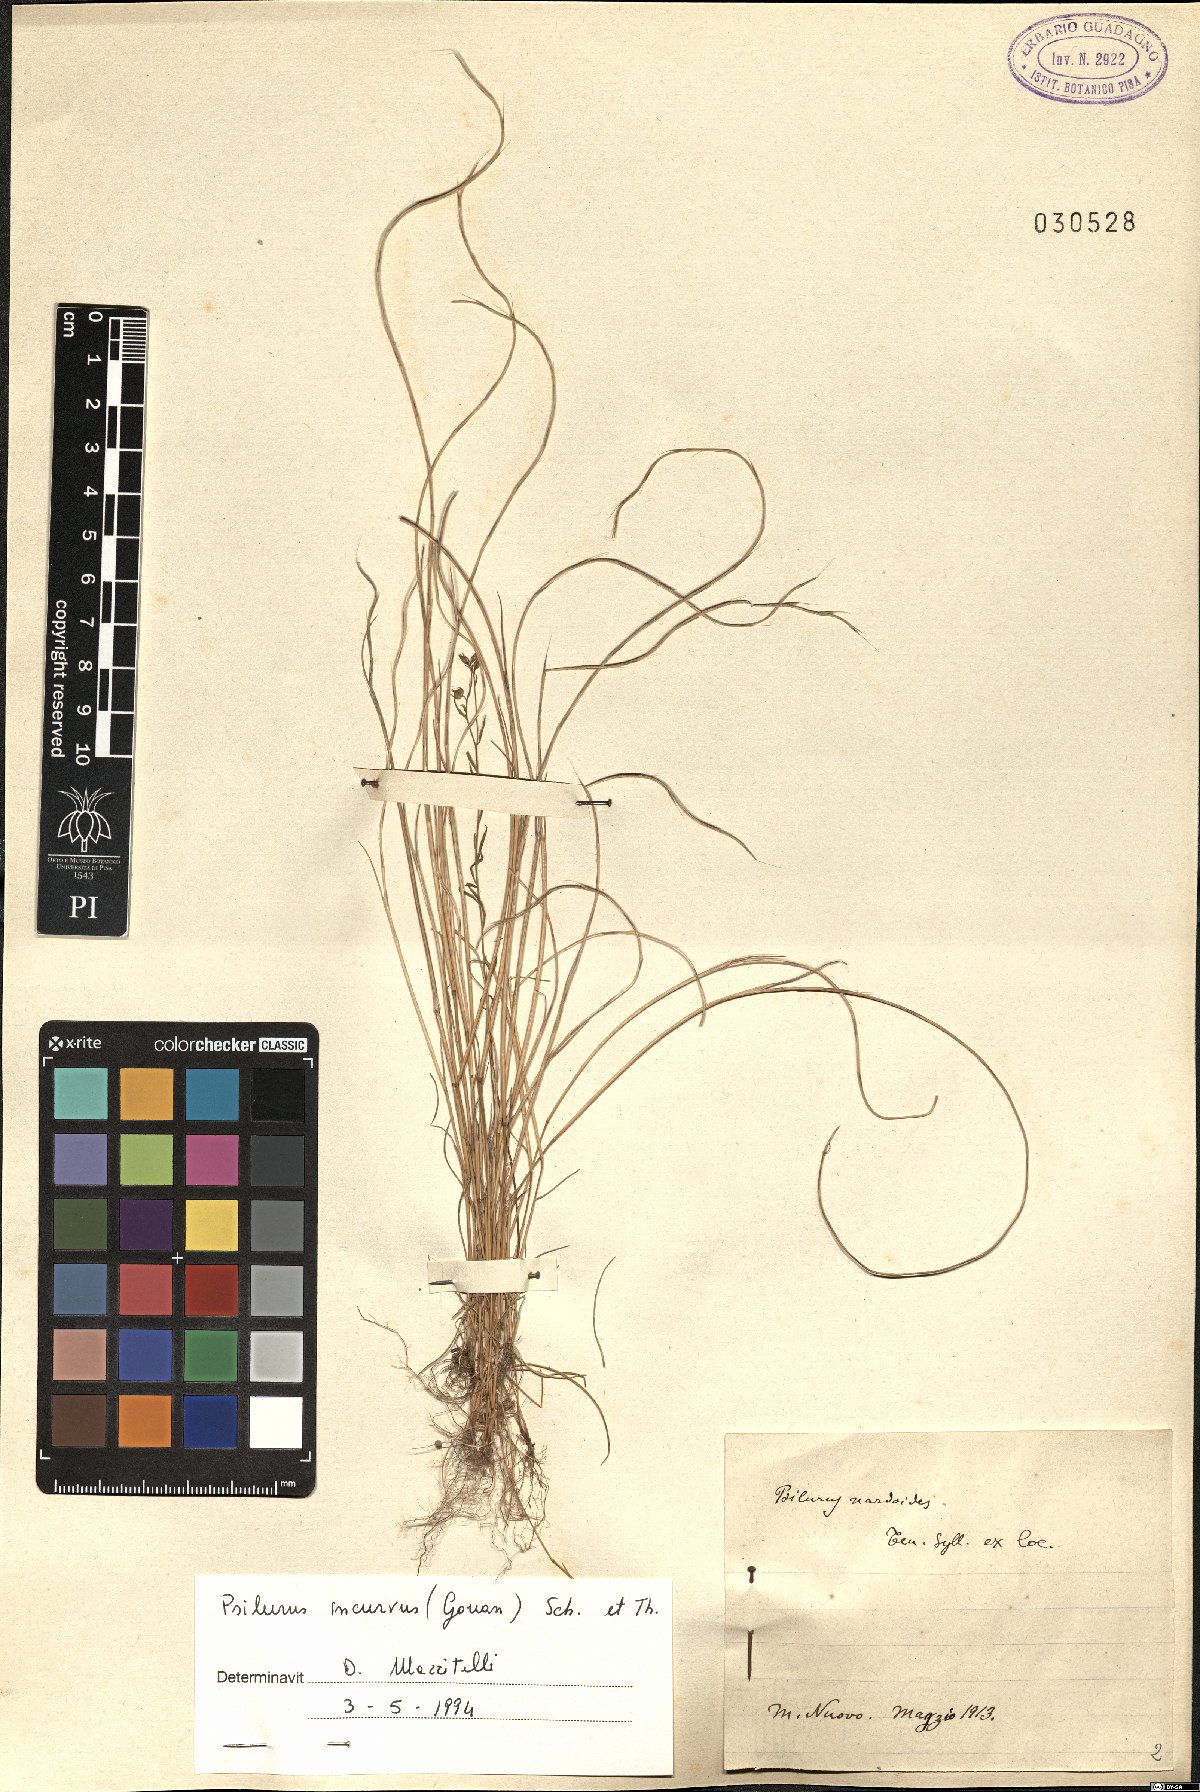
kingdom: Plantae
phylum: Tracheophyta
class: Liliopsida
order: Poales
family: Poaceae
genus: Festuca
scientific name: Festuca incurva
